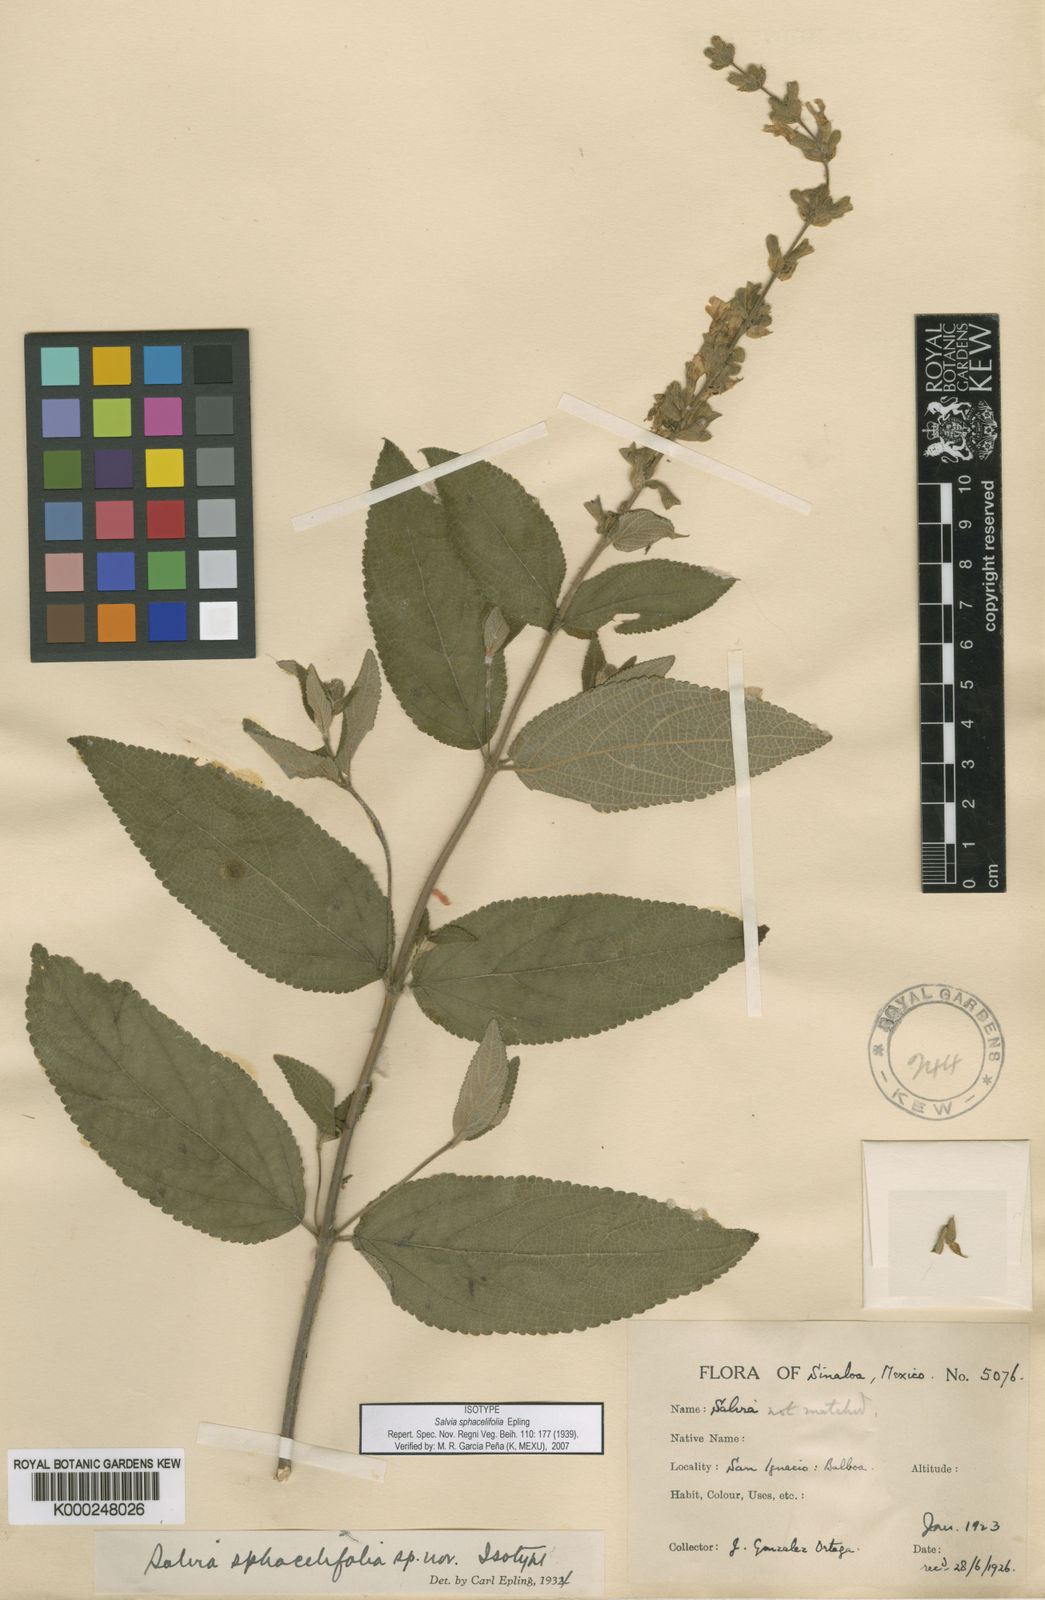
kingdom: Plantae
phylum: Tracheophyta
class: Magnoliopsida
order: Lamiales
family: Lamiaceae
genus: Salvia
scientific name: Salvia sphacelifolia
